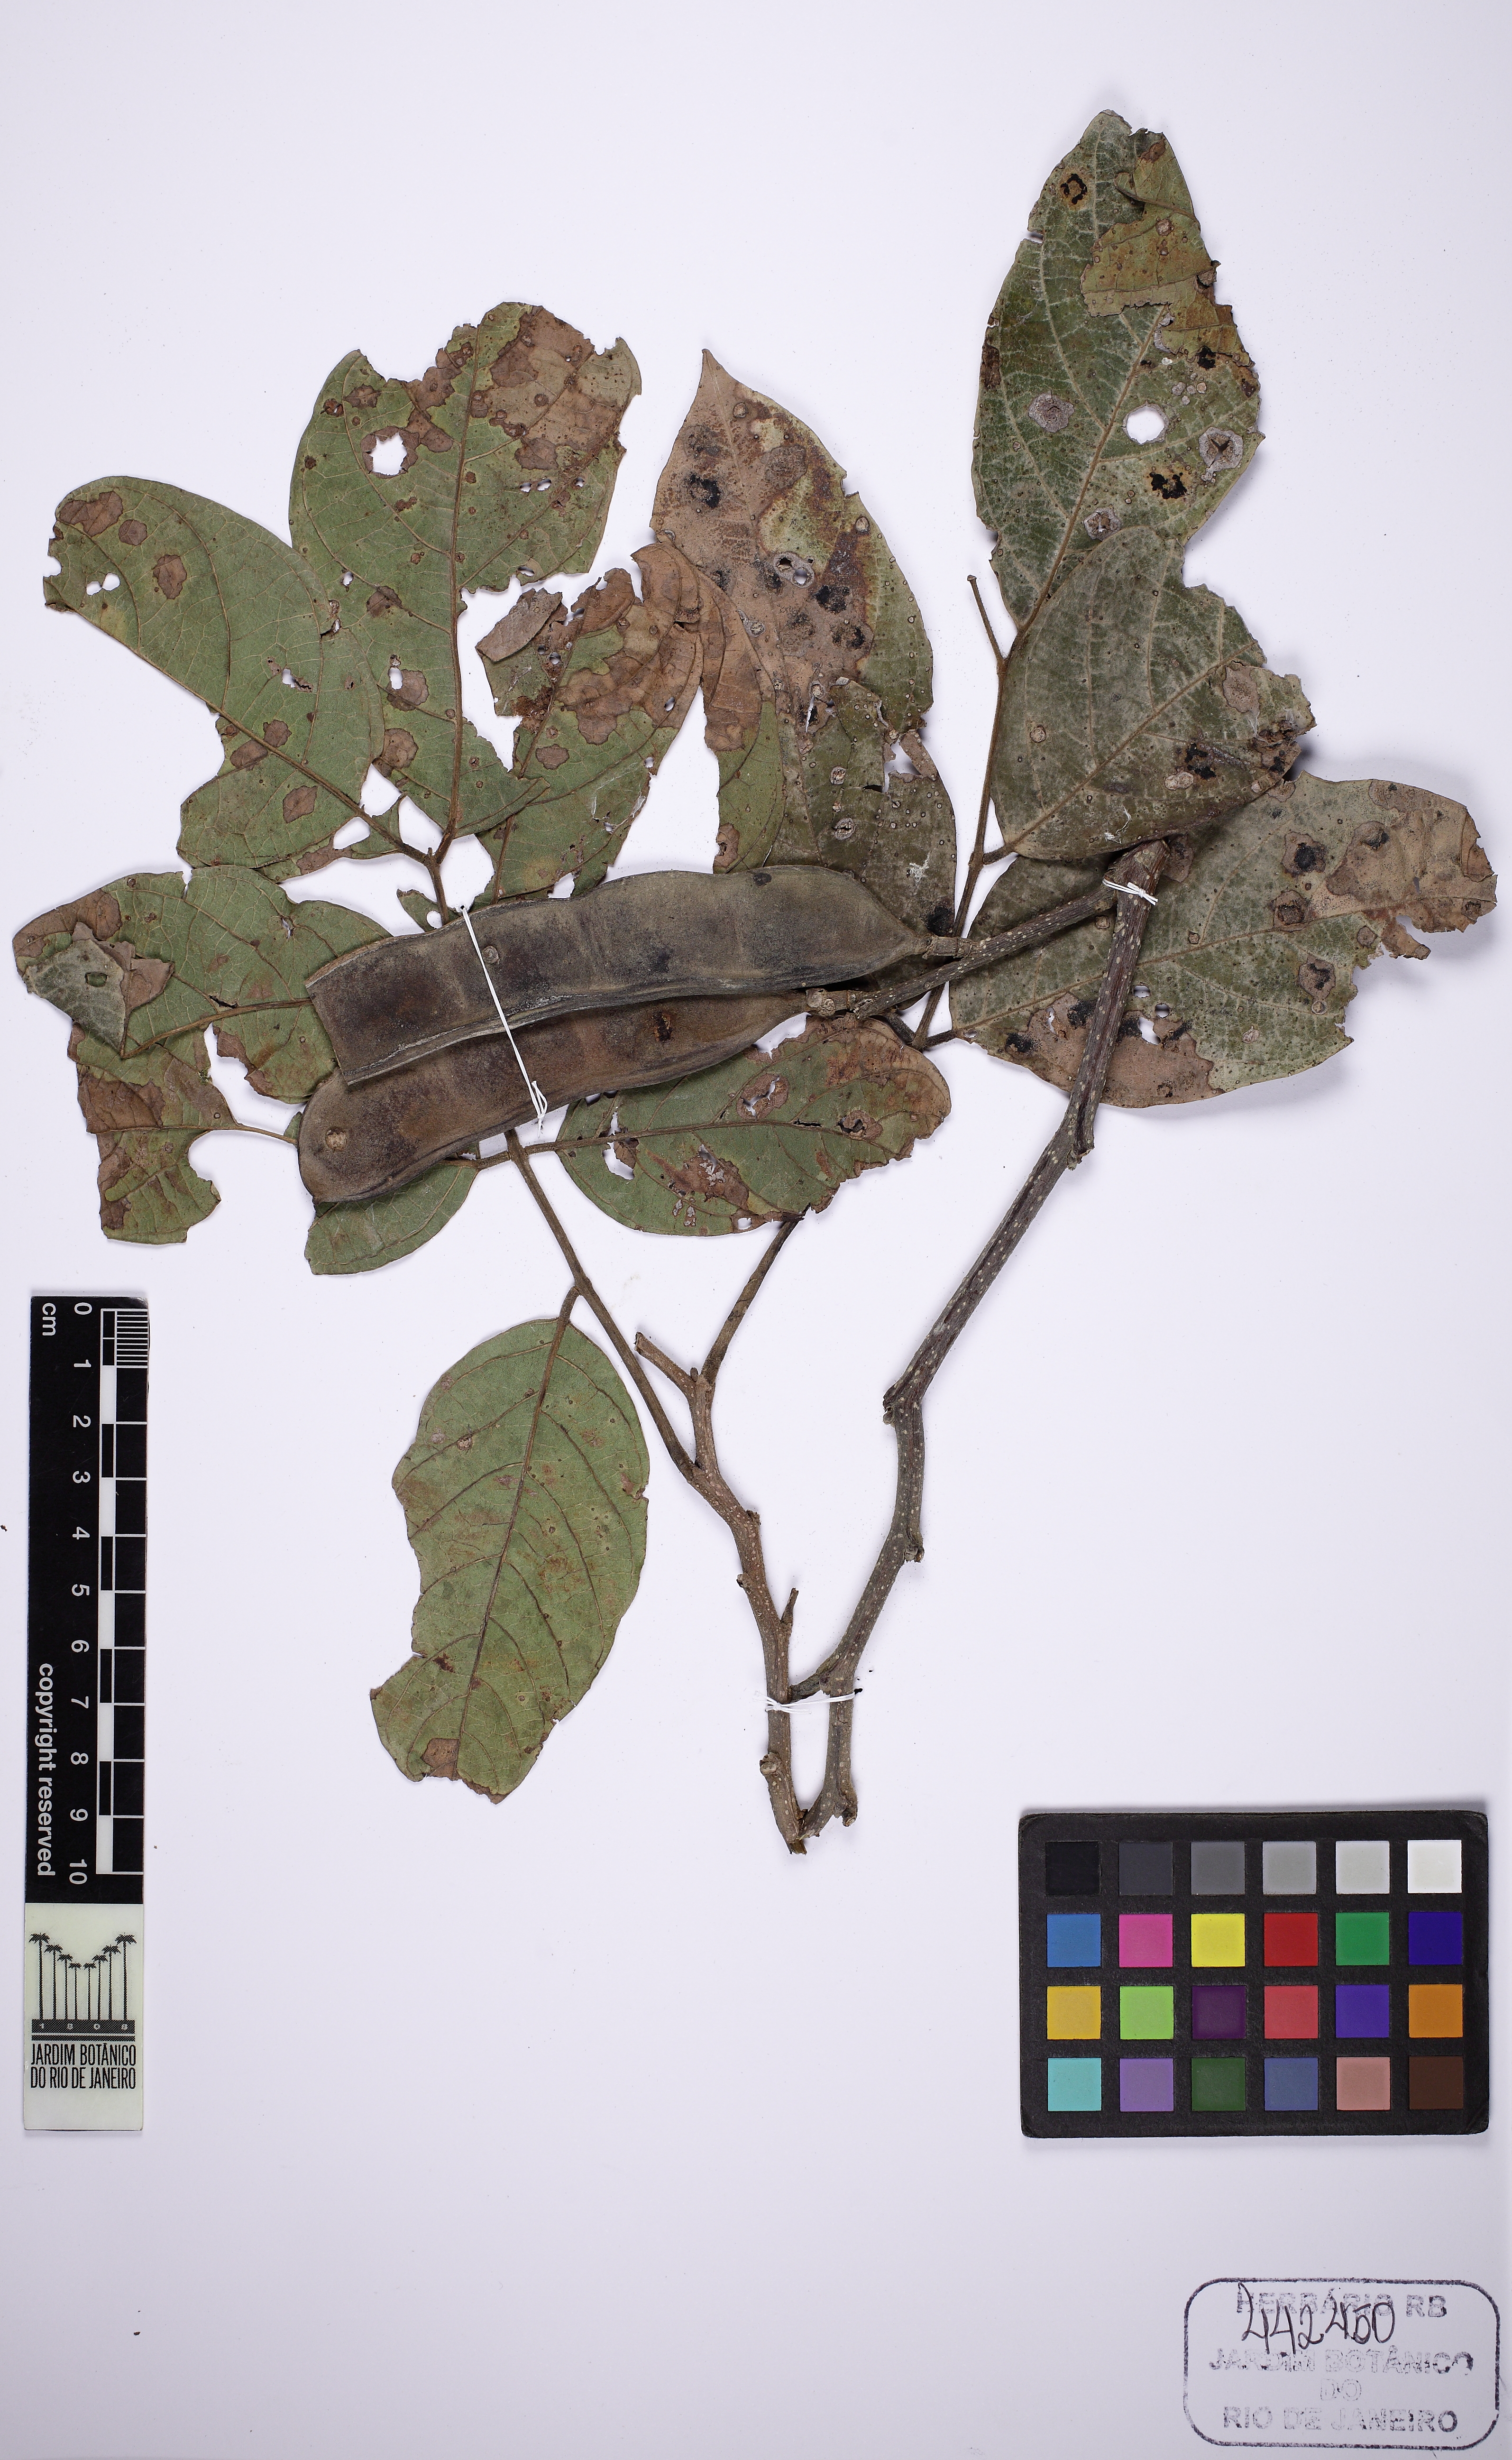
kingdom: Plantae
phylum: Tracheophyta
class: Magnoliopsida
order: Fabales
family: Fabaceae
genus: Lonchocarpus
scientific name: Lonchocarpus sericeus
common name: Savonette
